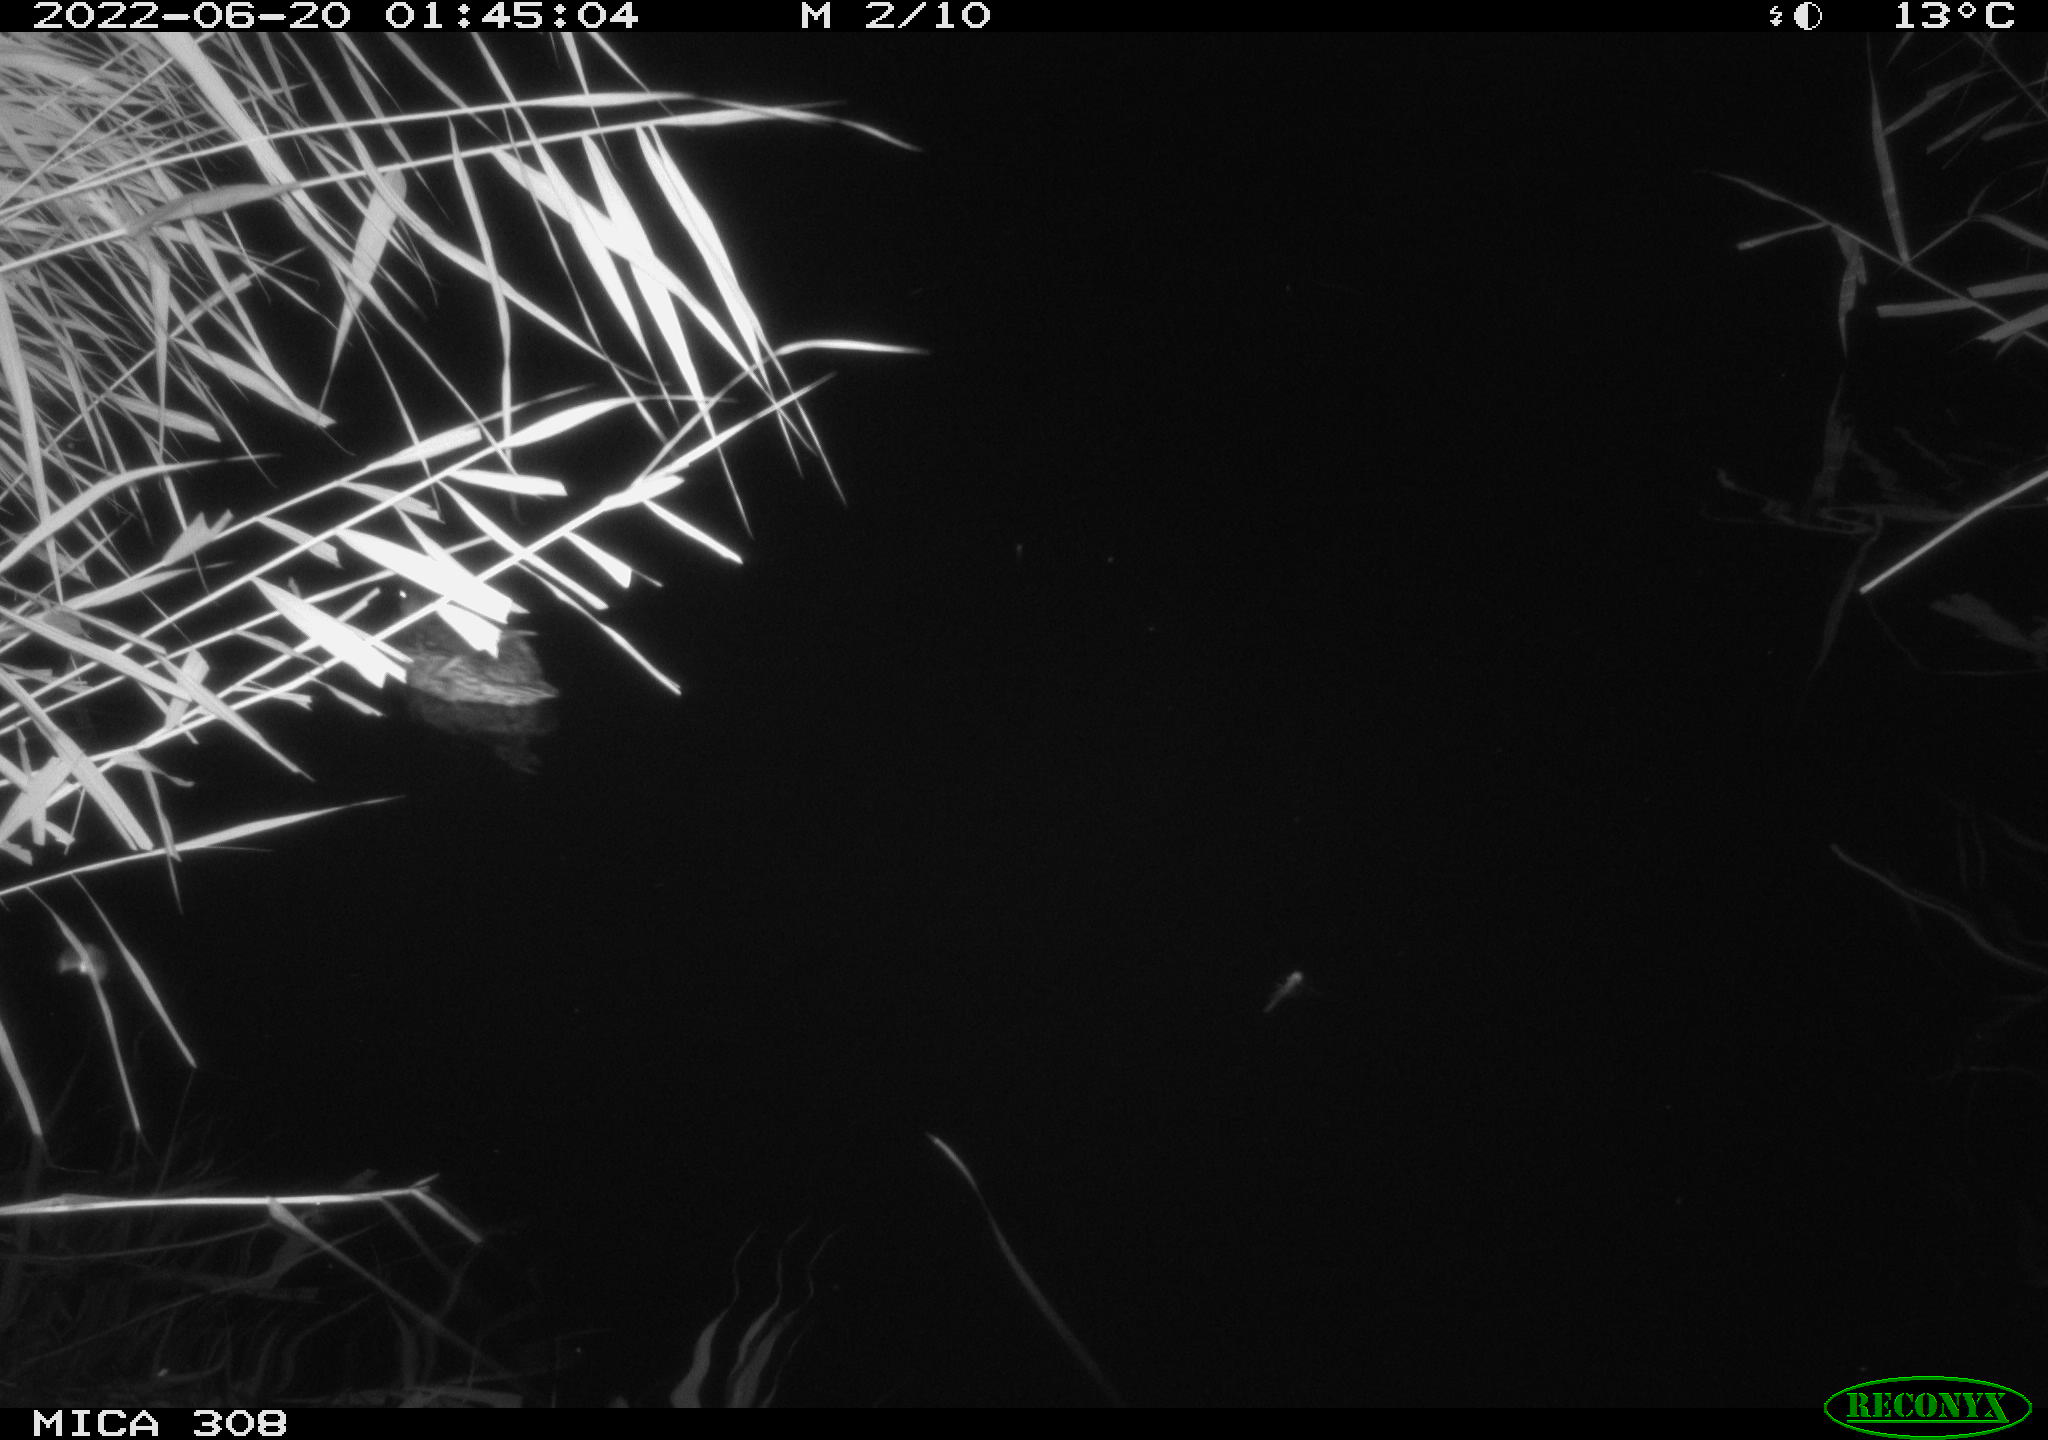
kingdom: Animalia
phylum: Chordata
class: Aves
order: Anseriformes
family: Anatidae
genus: Anas
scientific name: Anas platyrhynchos
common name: Mallard
